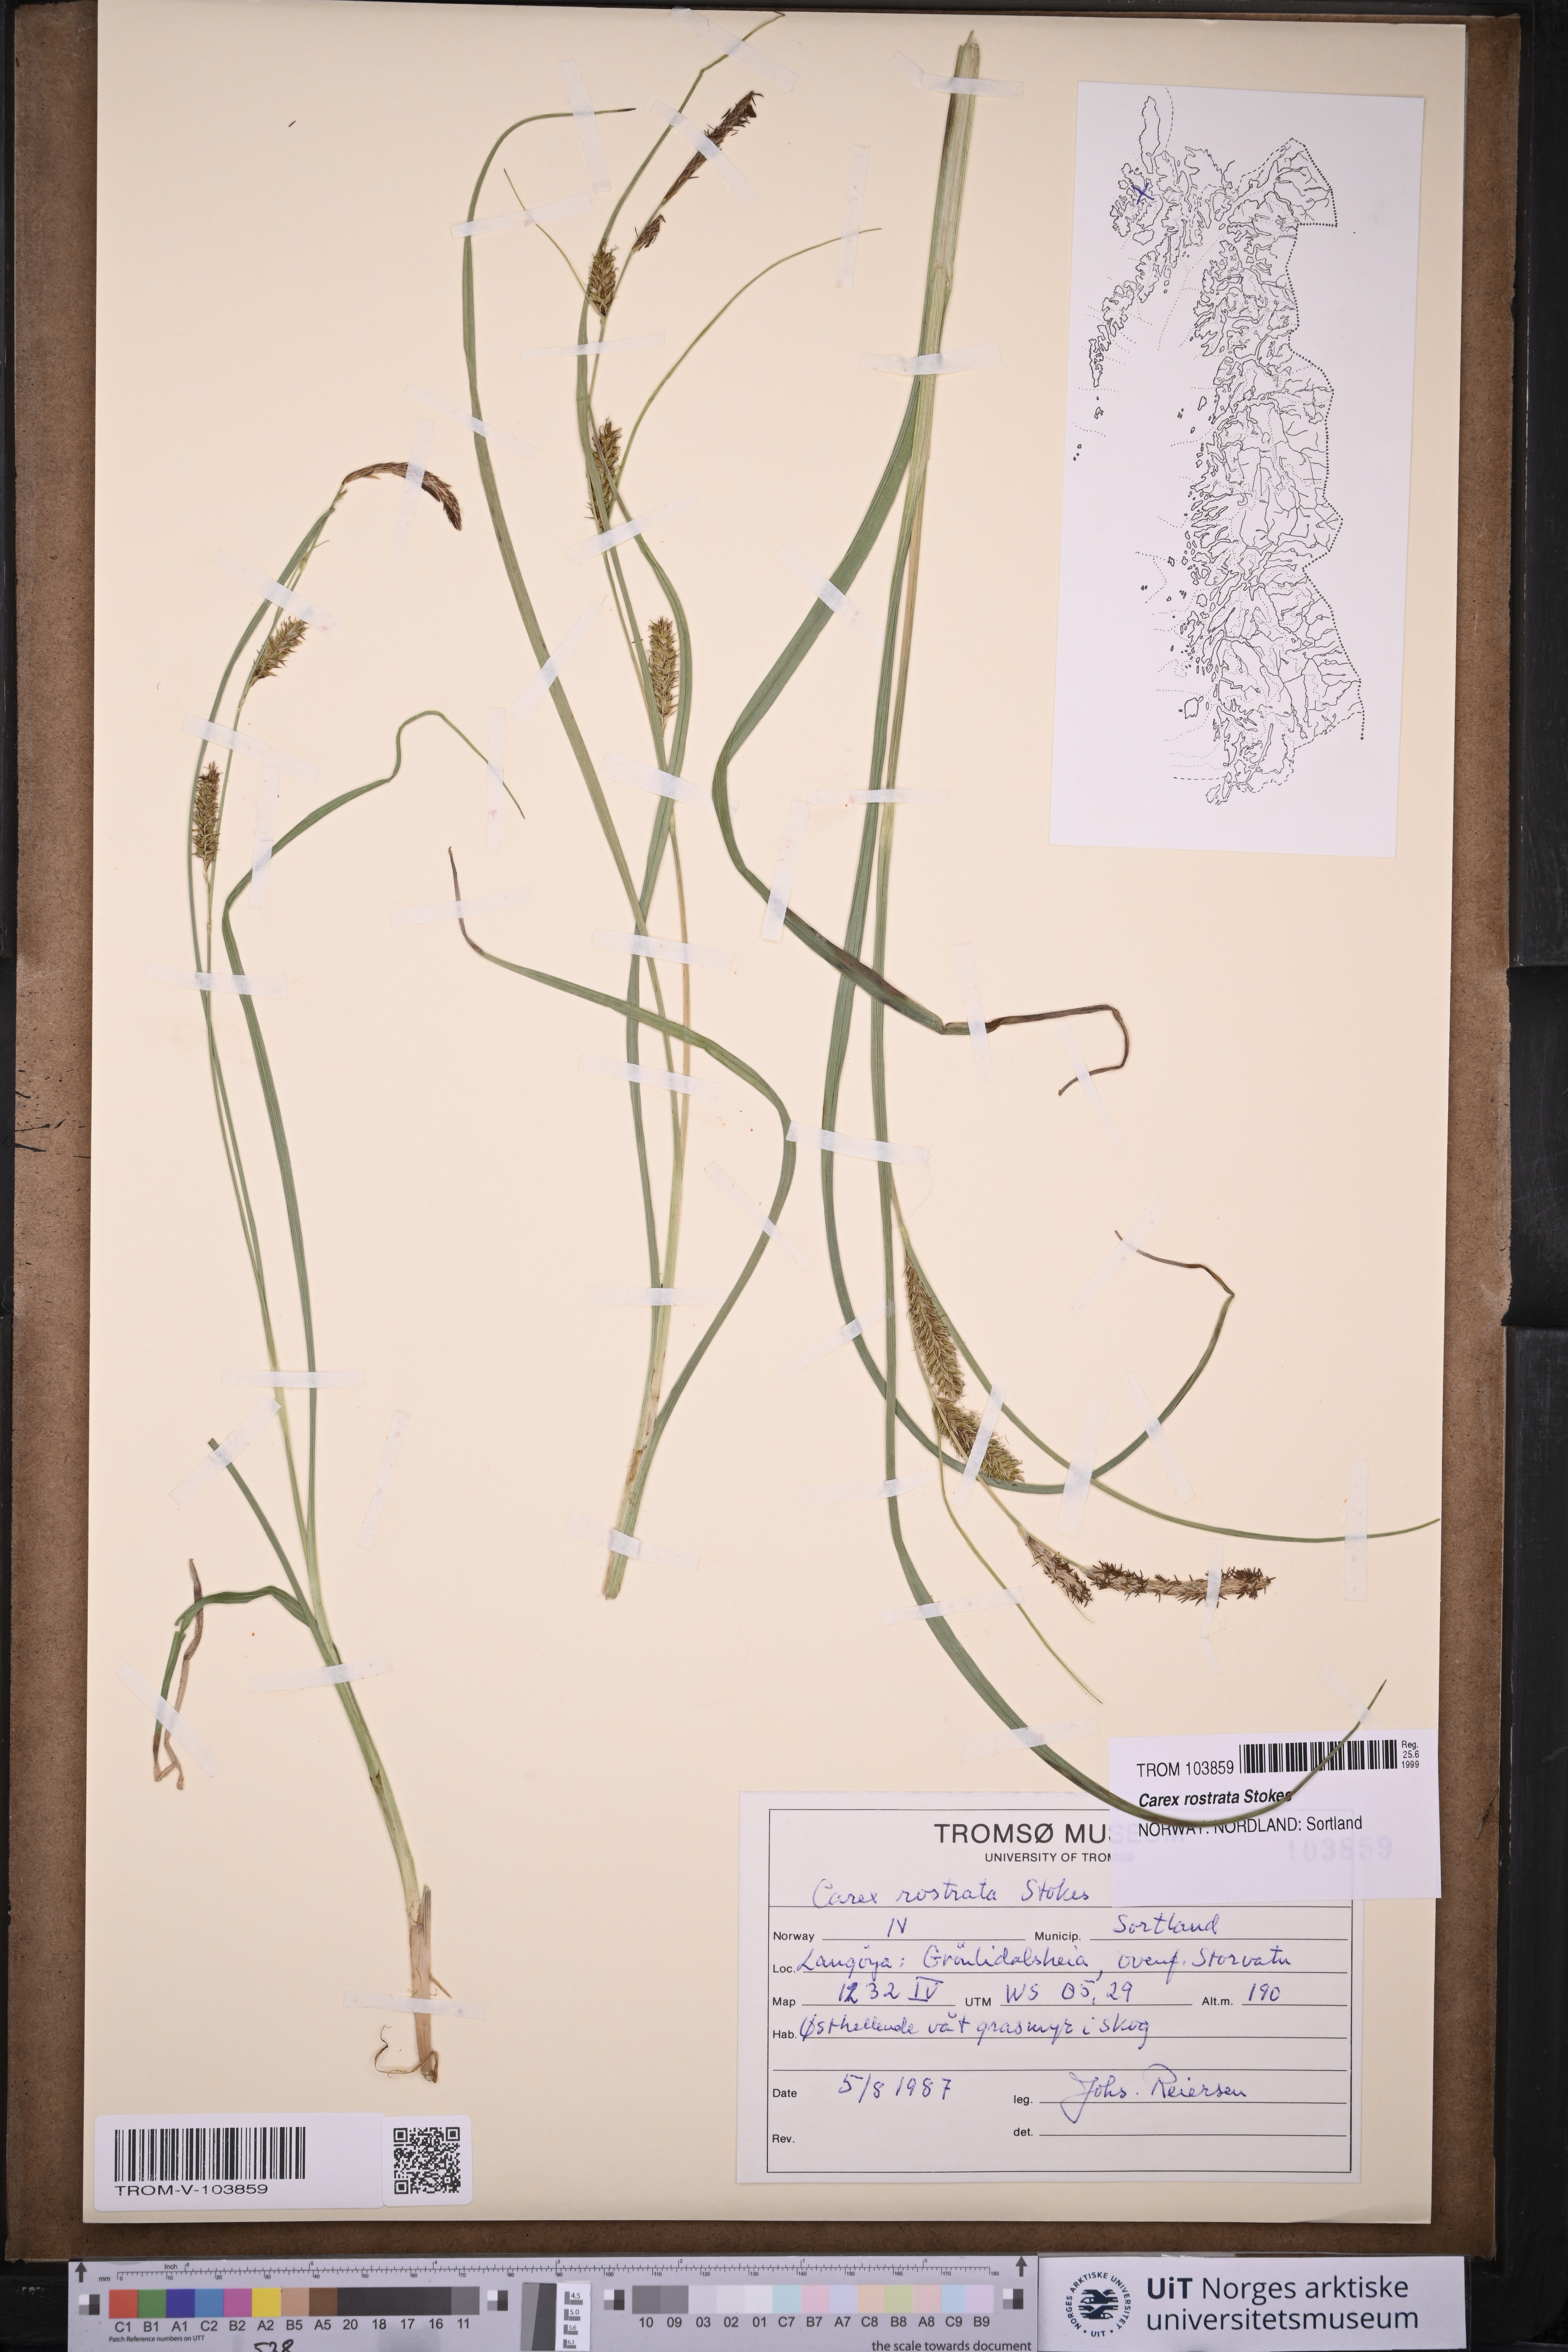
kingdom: Plantae
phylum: Tracheophyta
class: Liliopsida
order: Poales
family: Cyperaceae
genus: Carex
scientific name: Carex rostrata
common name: Bottle sedge
